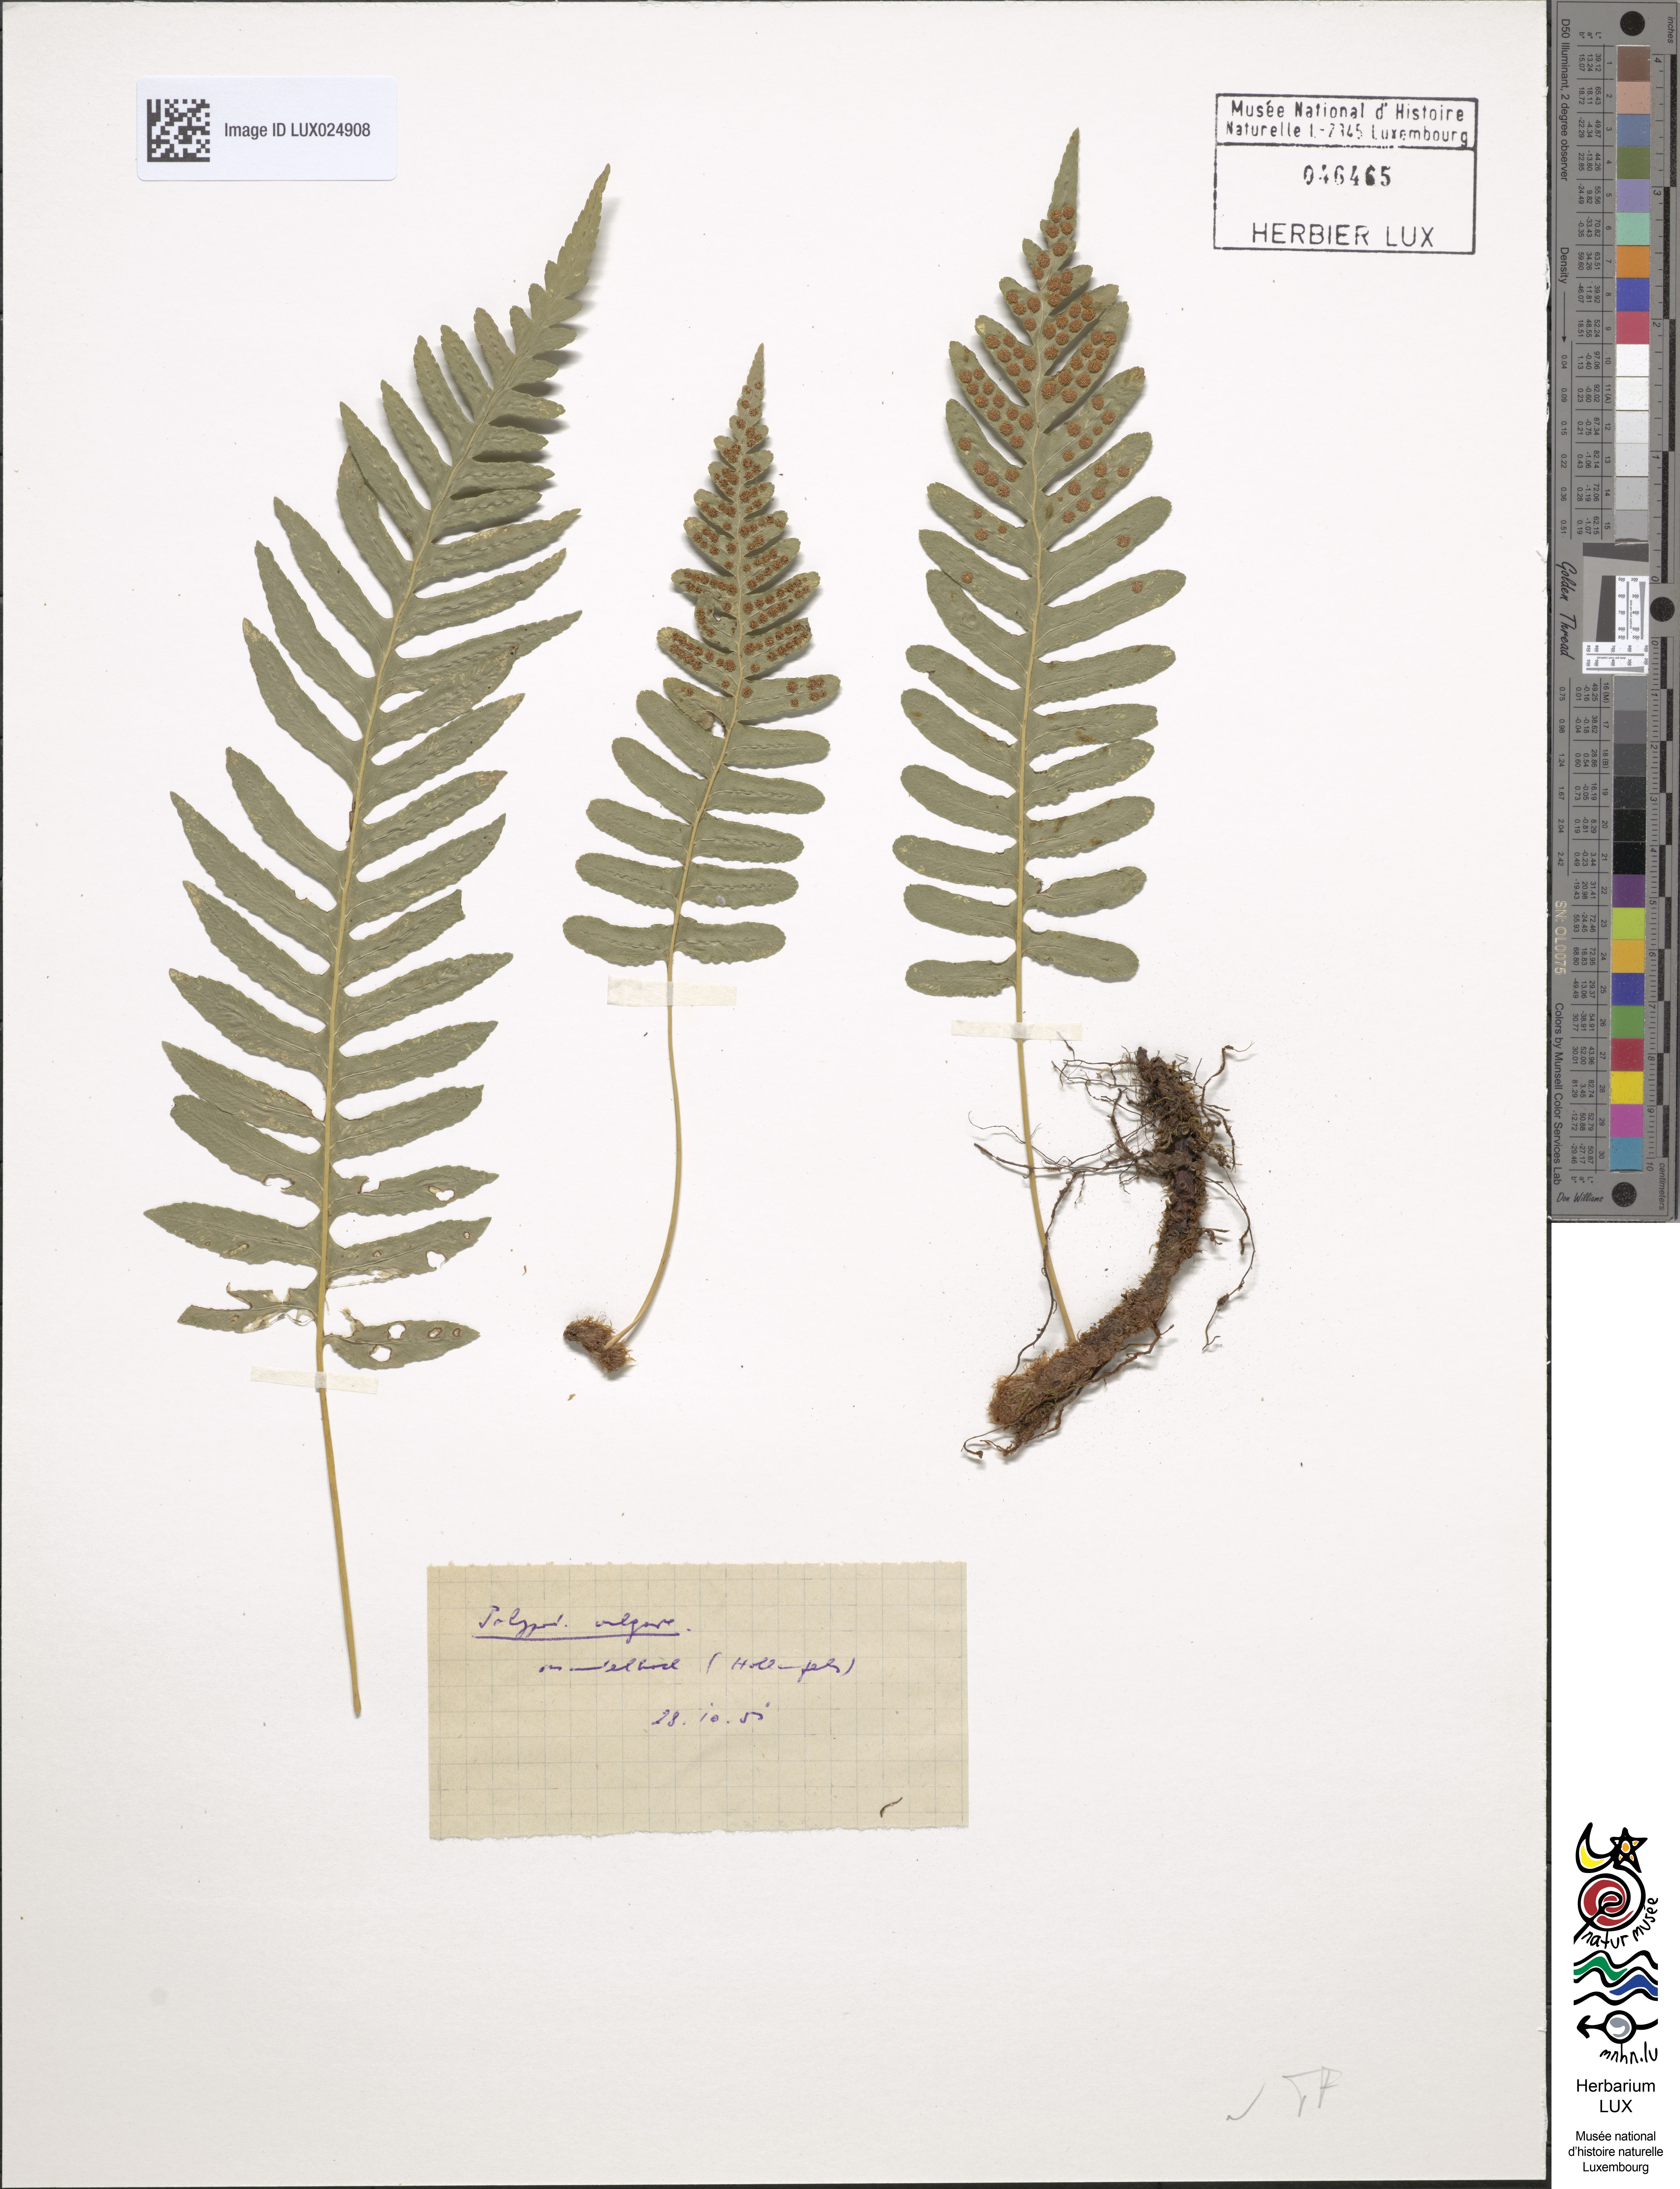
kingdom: Plantae
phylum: Tracheophyta
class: Polypodiopsida
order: Polypodiales
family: Polypodiaceae
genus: Polypodium
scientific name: Polypodium vulgare
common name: Common polypody
